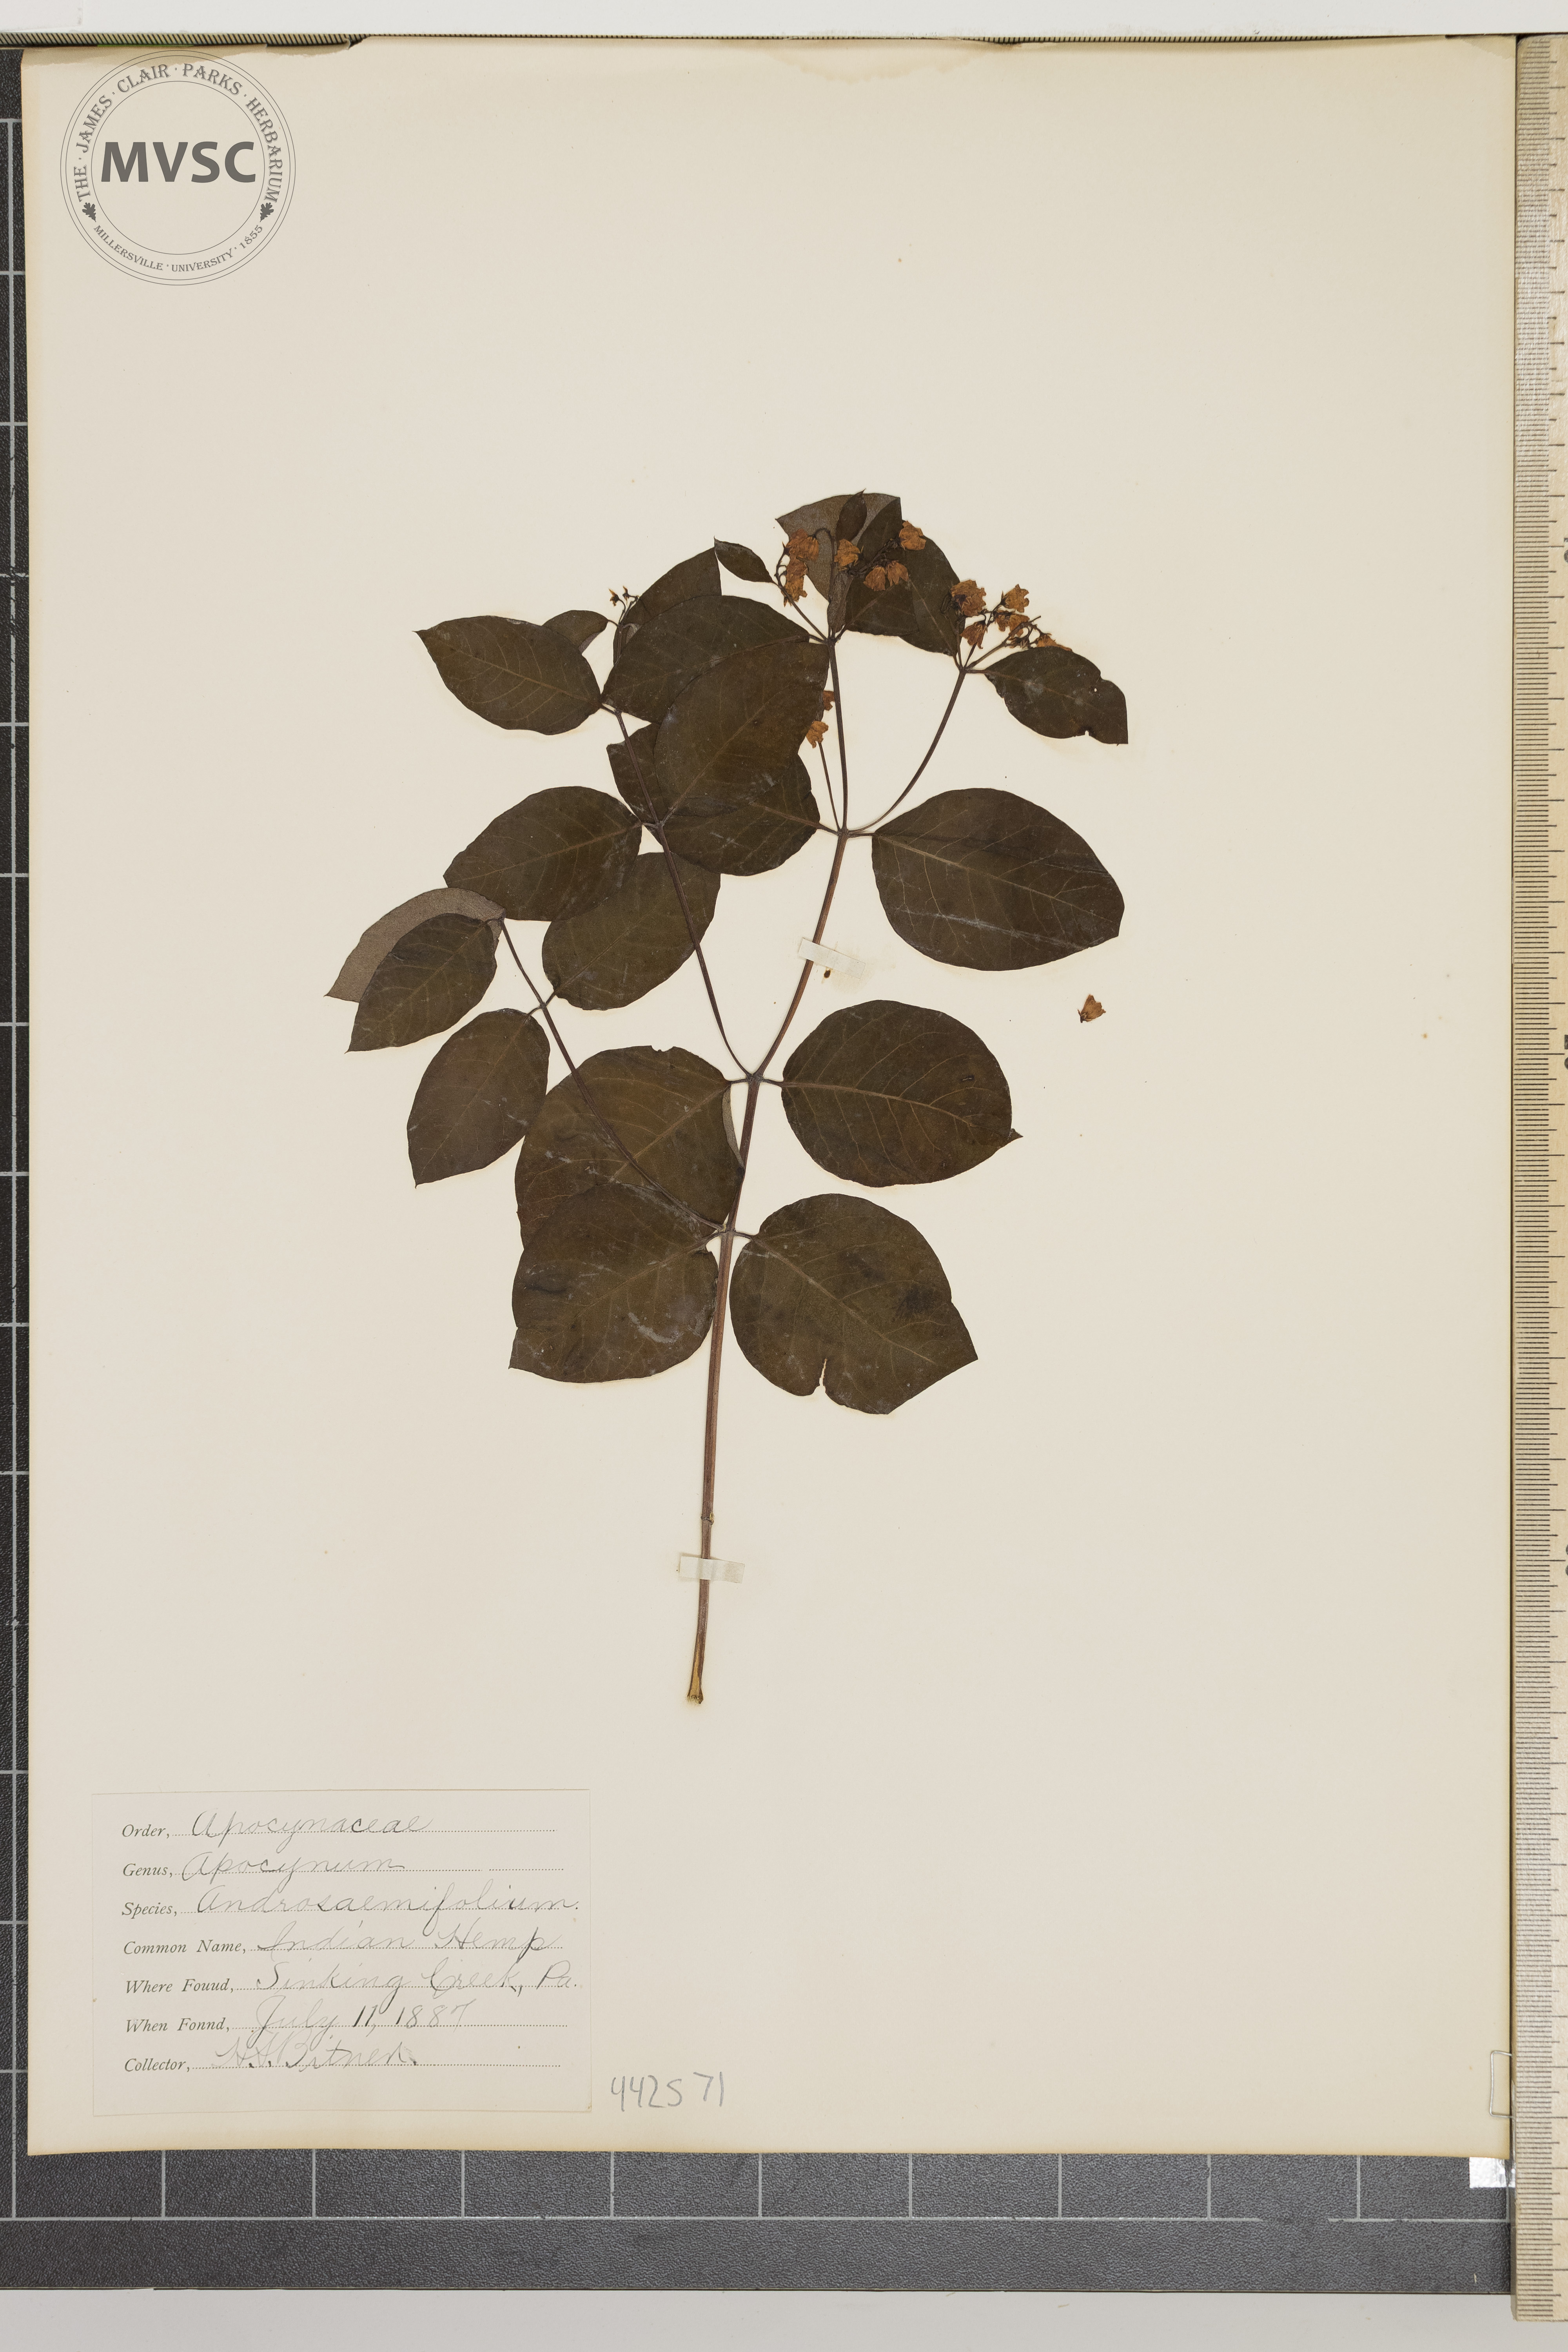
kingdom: Plantae
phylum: Tracheophyta
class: Magnoliopsida
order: Gentianales
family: Apocynaceae
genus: Apocynum
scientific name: Apocynum androsaemifolium
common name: Indian hemp
